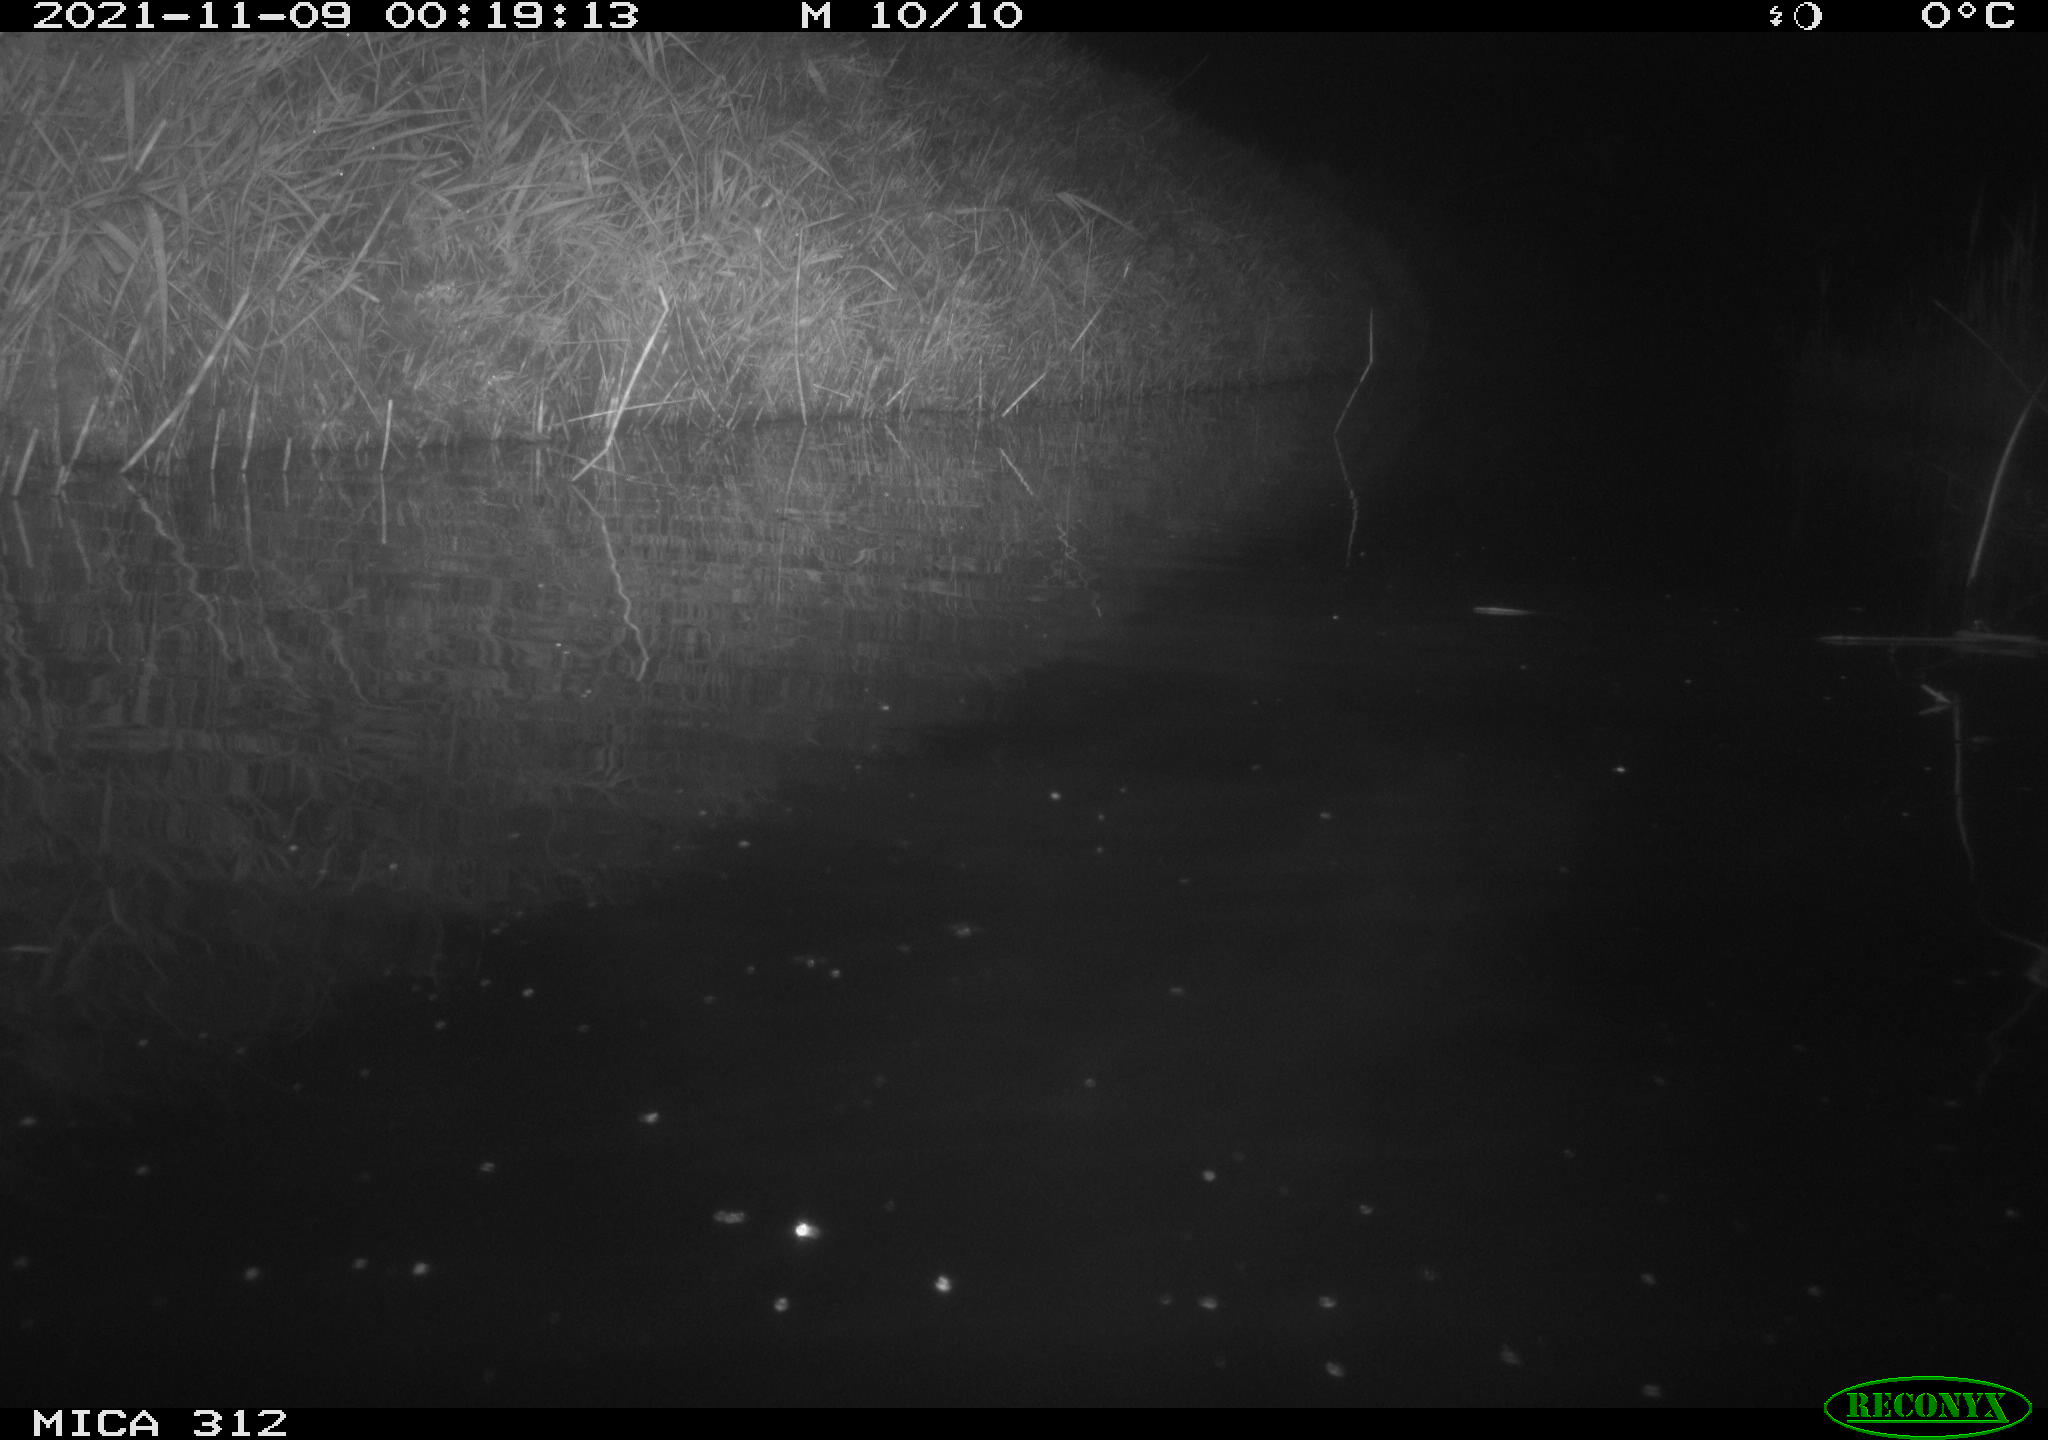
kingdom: Animalia
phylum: Chordata
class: Mammalia
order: Rodentia
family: Muridae
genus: Rattus
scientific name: Rattus norvegicus
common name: Brown rat
